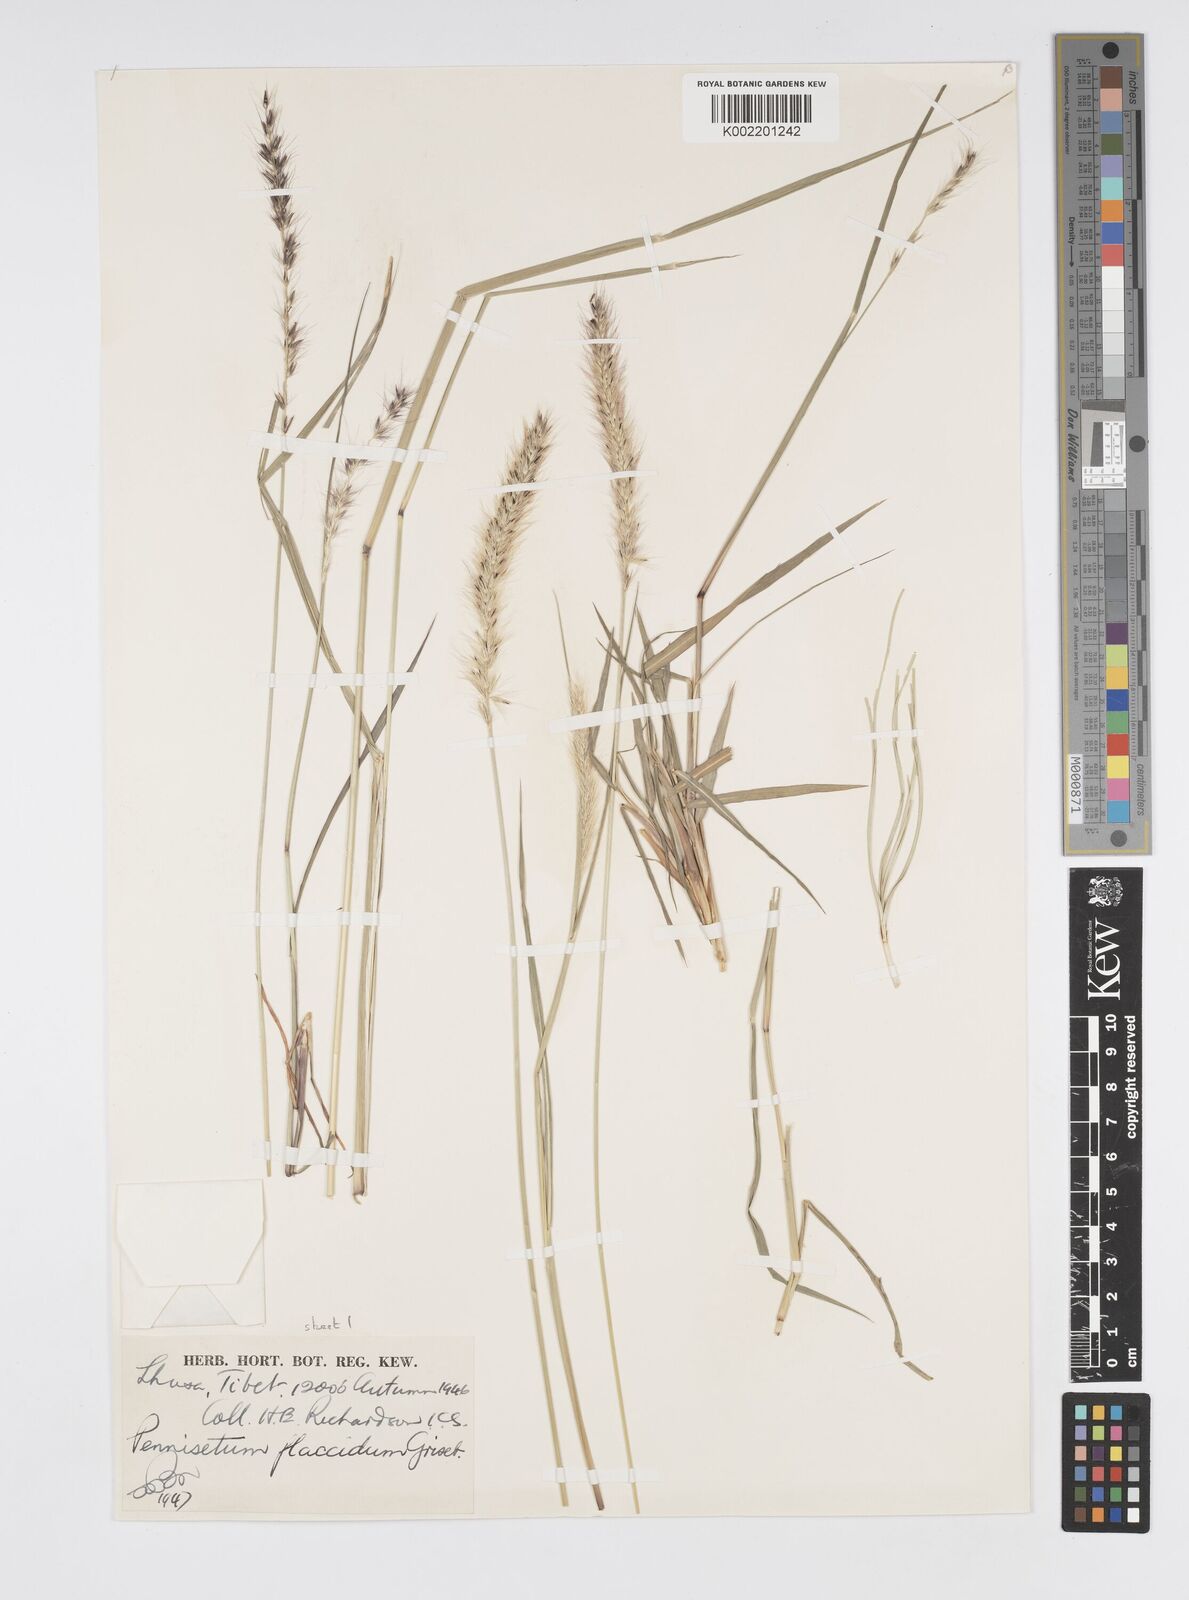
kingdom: Plantae
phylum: Tracheophyta
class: Liliopsida
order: Poales
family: Poaceae
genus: Cenchrus
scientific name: Cenchrus flaccidus
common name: Flaccid grass
